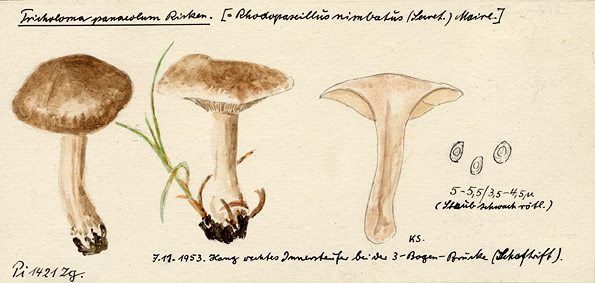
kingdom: Fungi
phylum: Basidiomycota
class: Agaricomycetes
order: Agaricales
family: Tricholomataceae
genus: Lepista
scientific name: Lepista luscina
